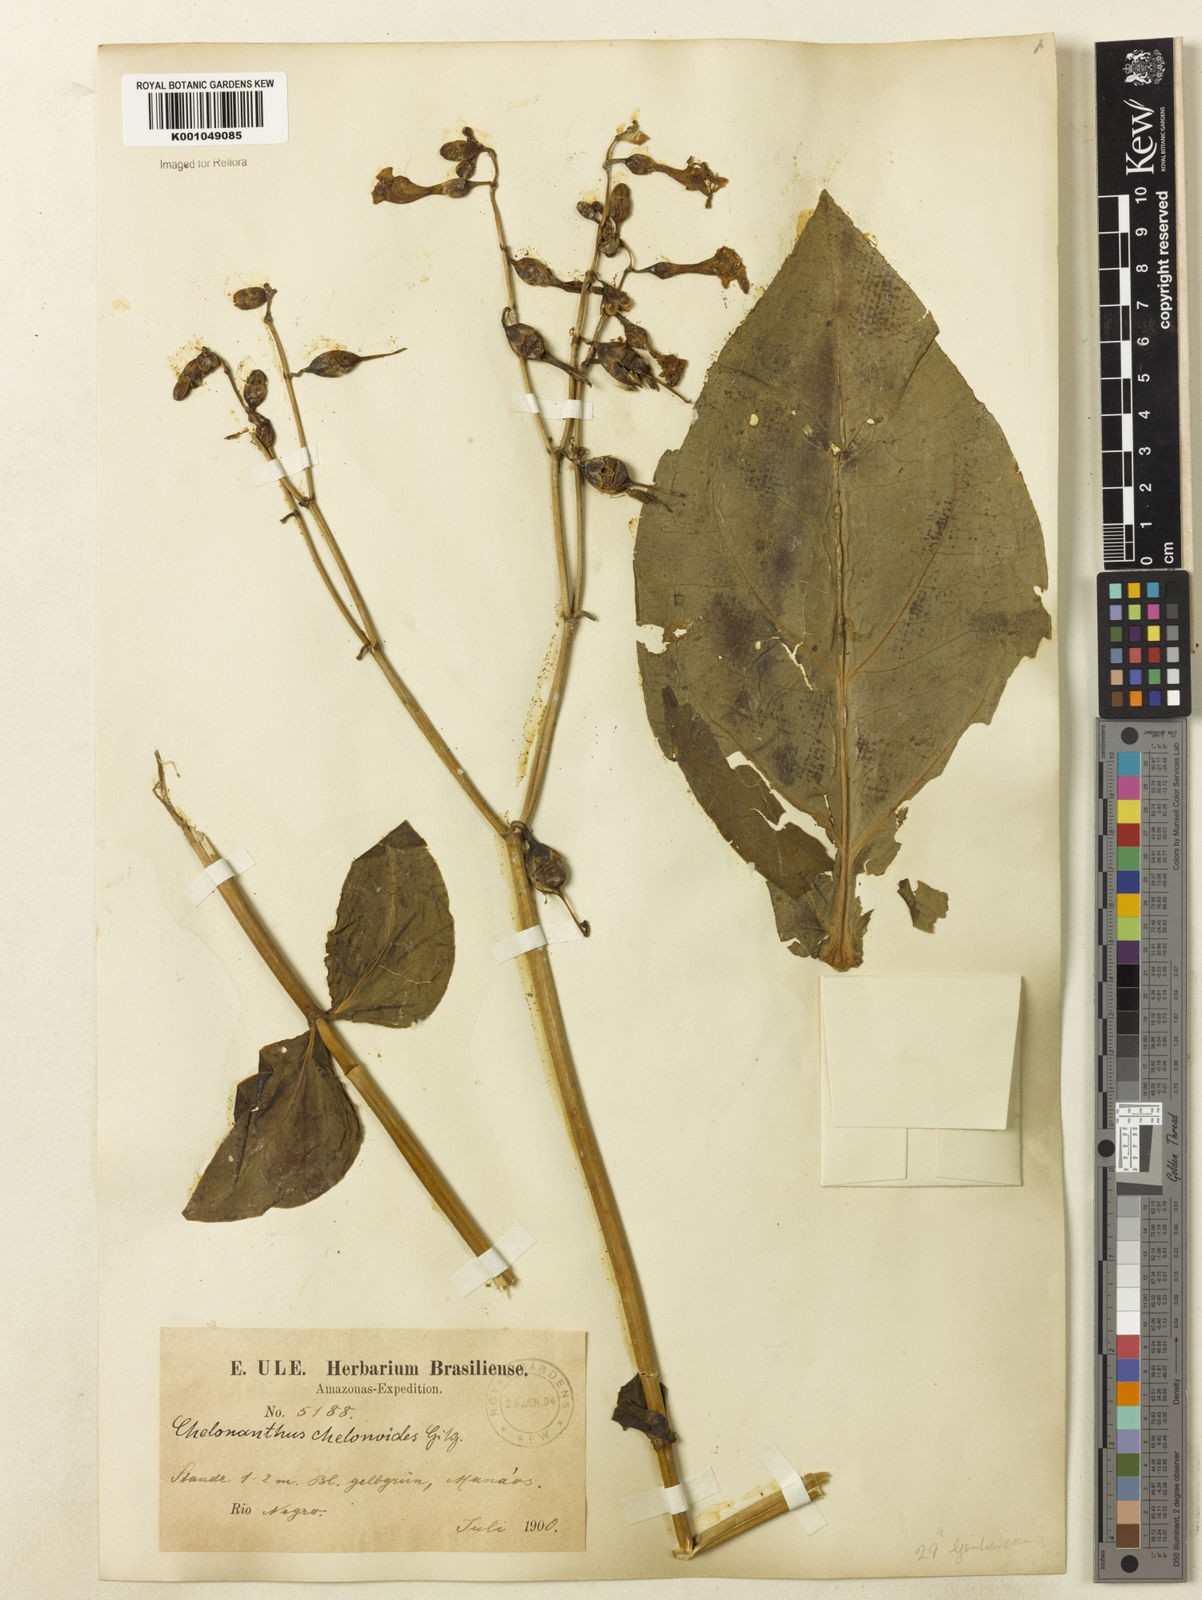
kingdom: Plantae
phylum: Tracheophyta
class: Magnoliopsida
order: Gentianales
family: Gentianaceae
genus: Chelonanthus
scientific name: Chelonanthus grandiflorus
